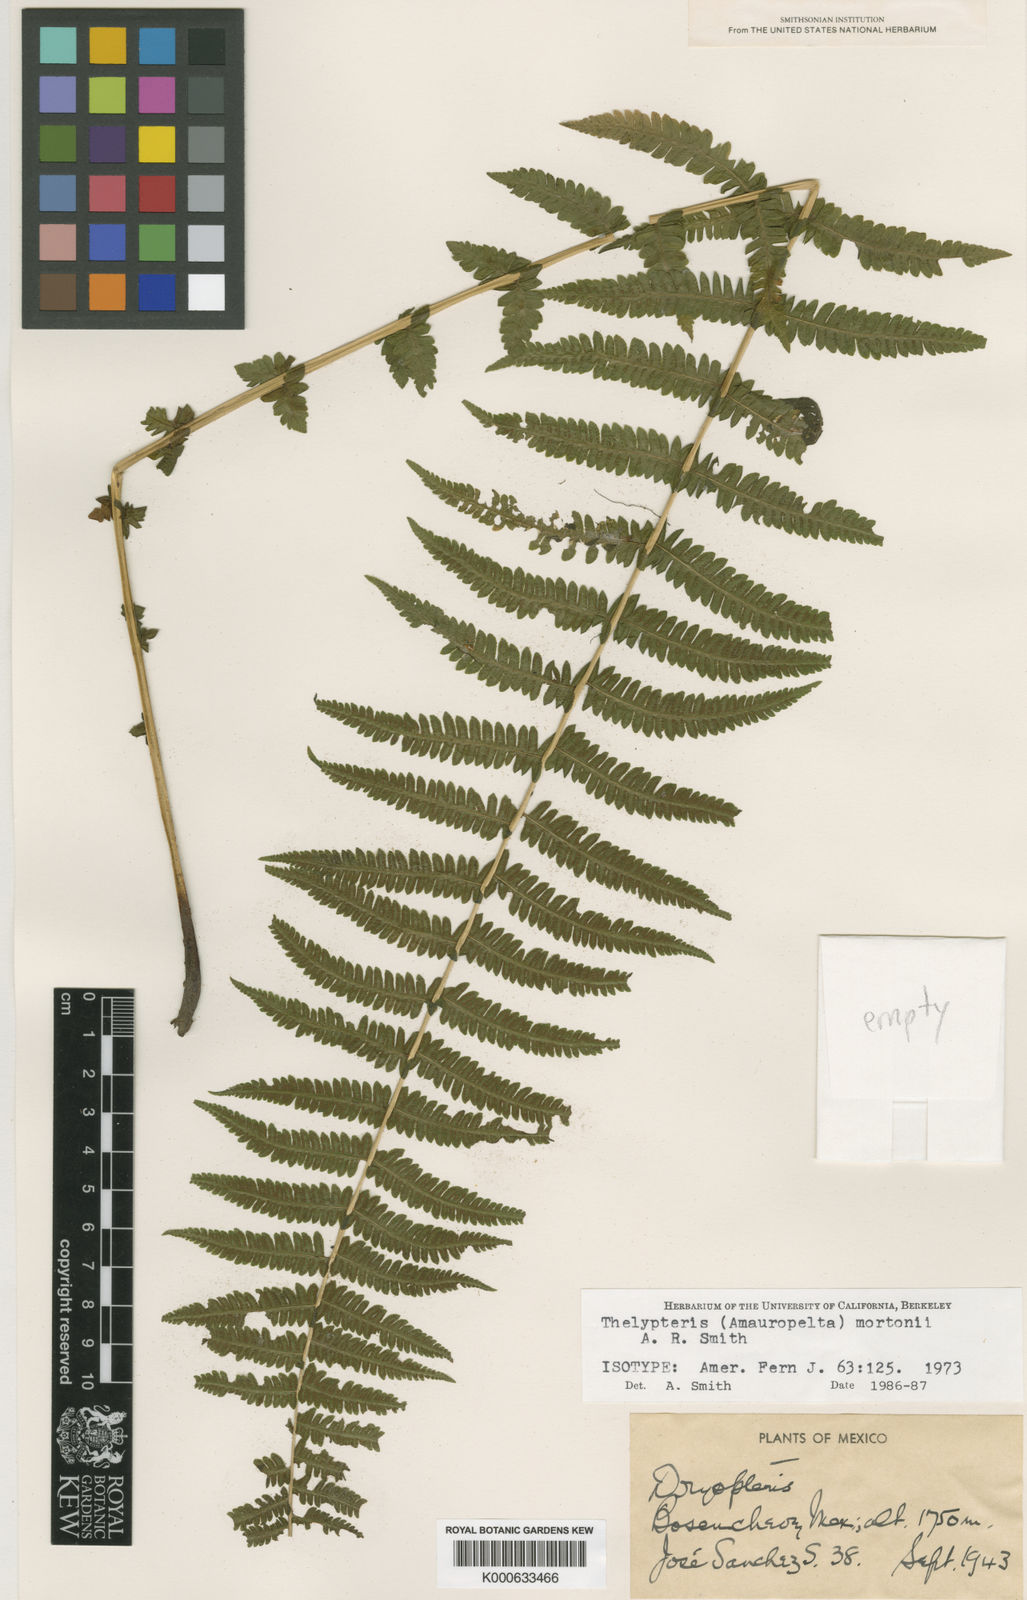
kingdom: Plantae
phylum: Tracheophyta
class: Polypodiopsida
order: Polypodiales
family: Thelypteridaceae
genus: Amauropelta
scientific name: Amauropelta mortonii
